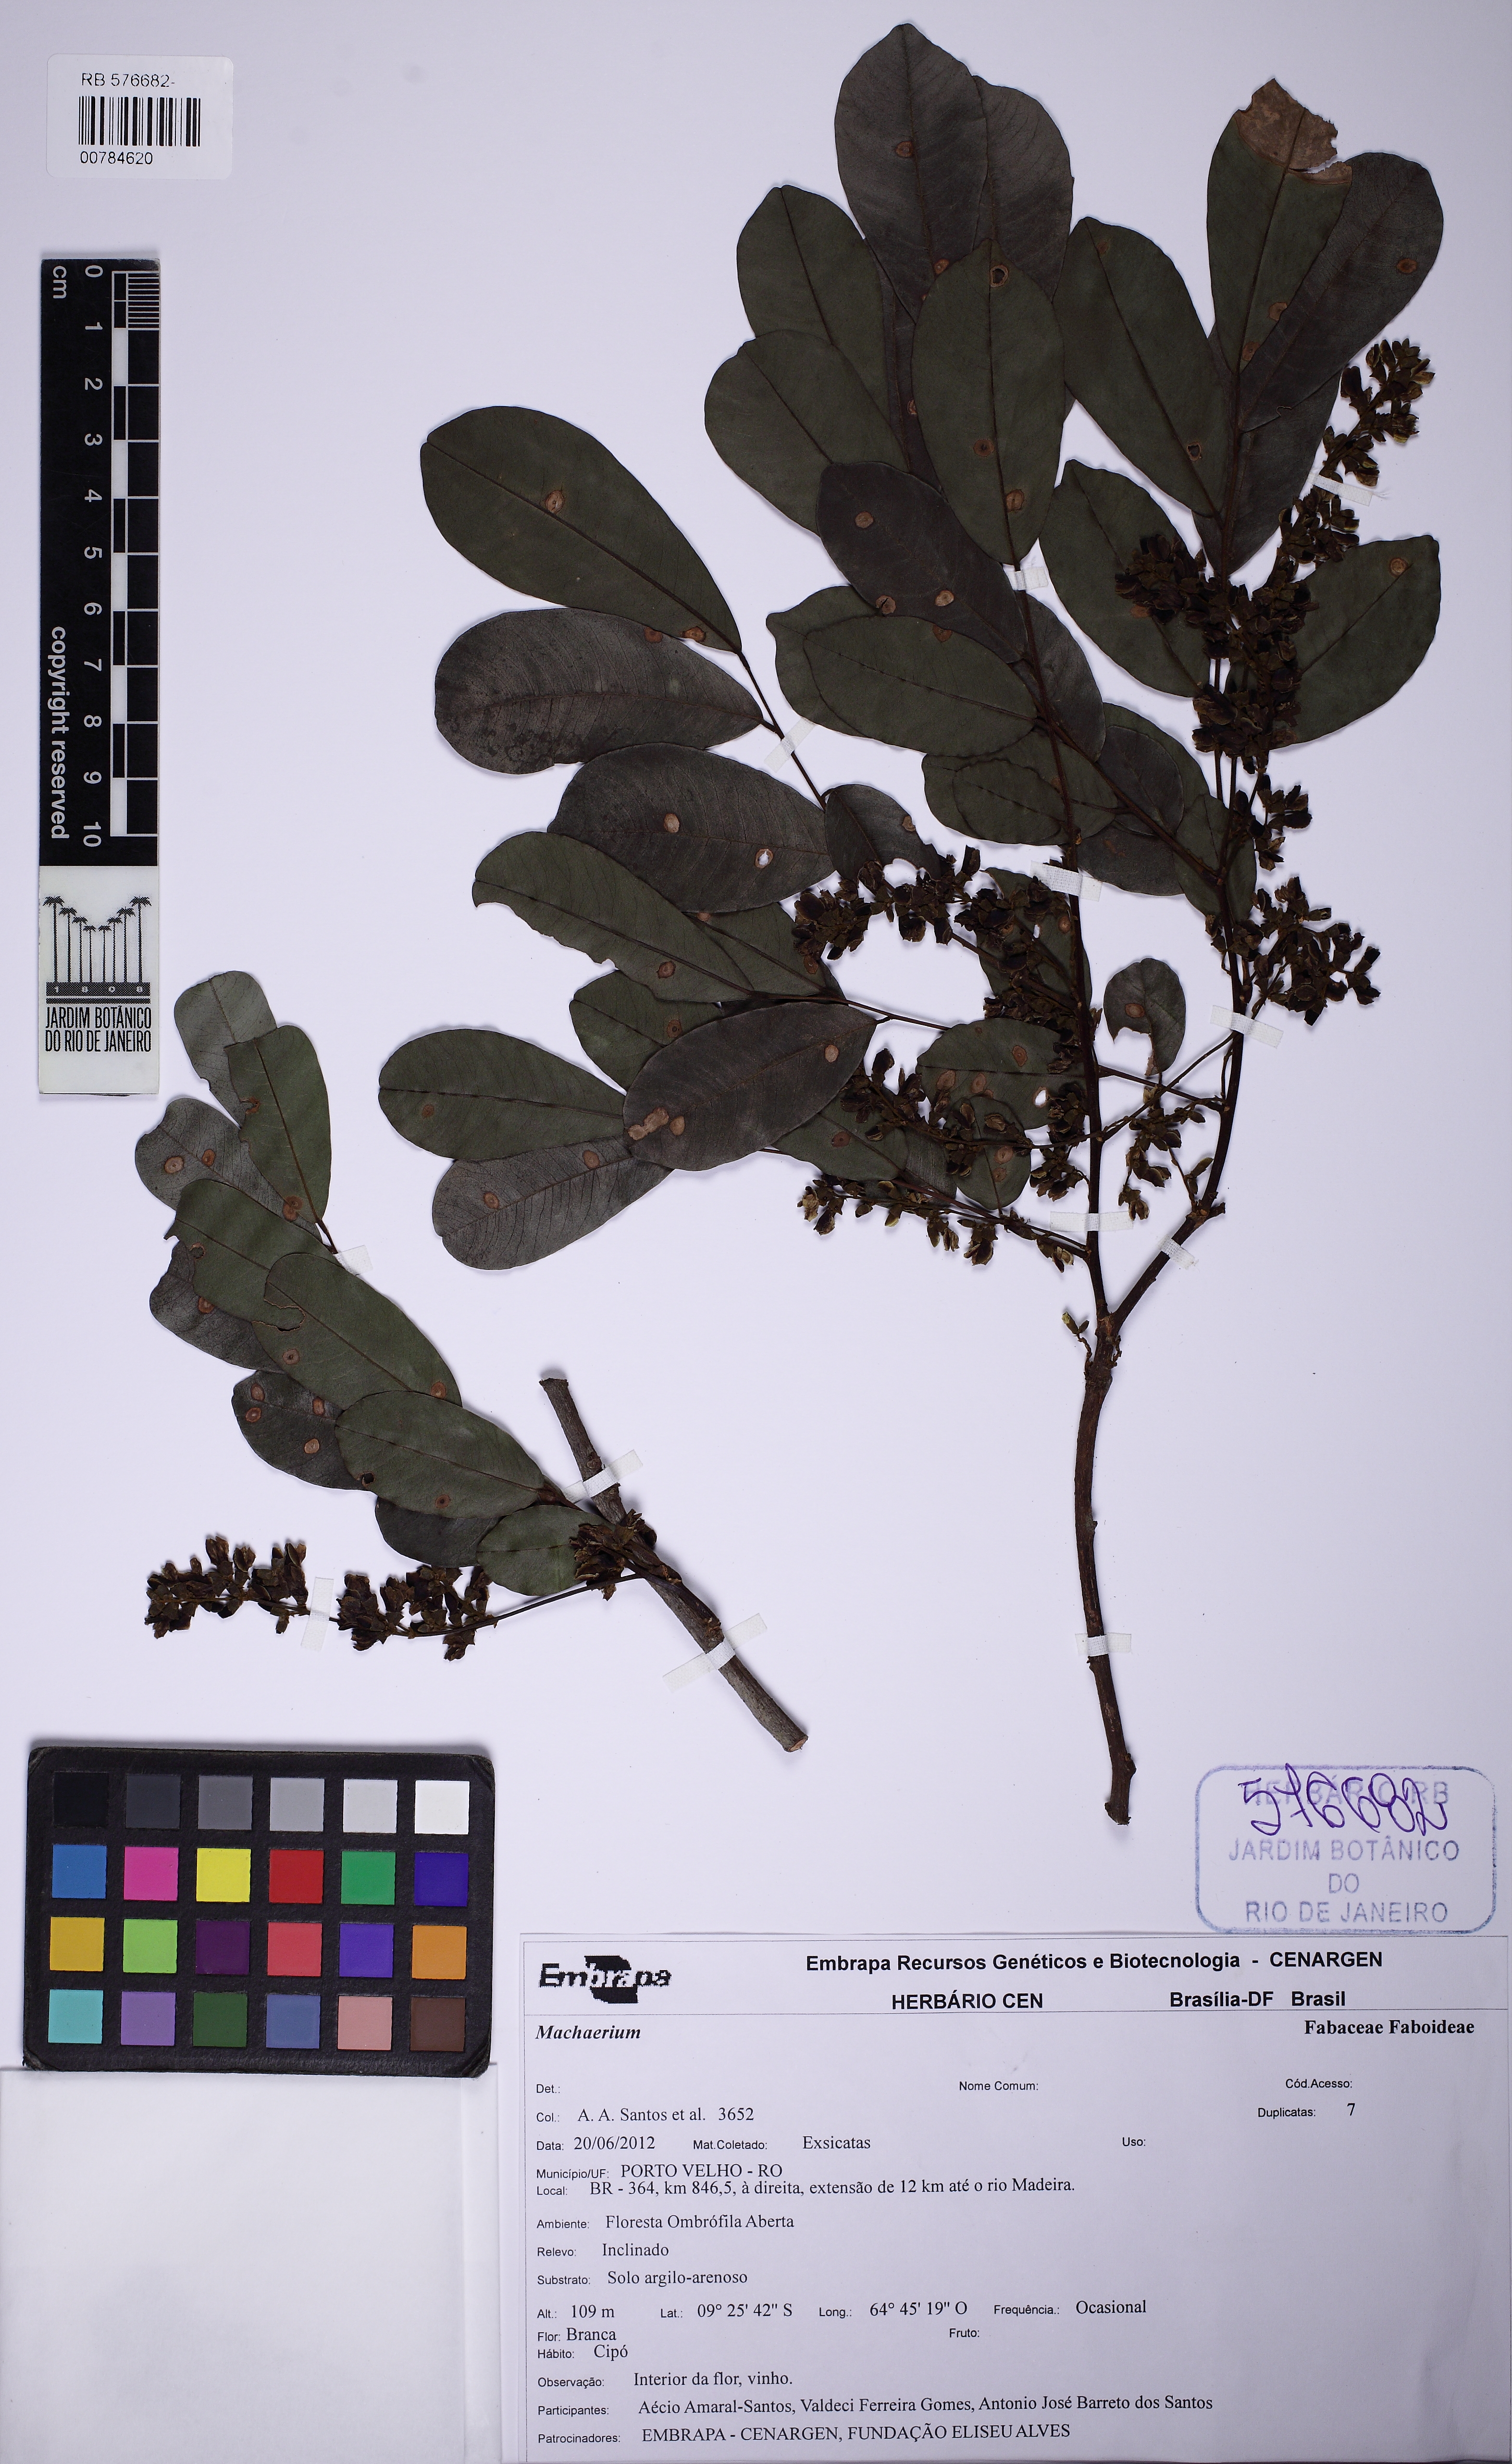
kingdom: Plantae
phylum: Tracheophyta
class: Magnoliopsida
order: Fabales
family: Fabaceae
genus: Machaerium
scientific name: Machaerium
